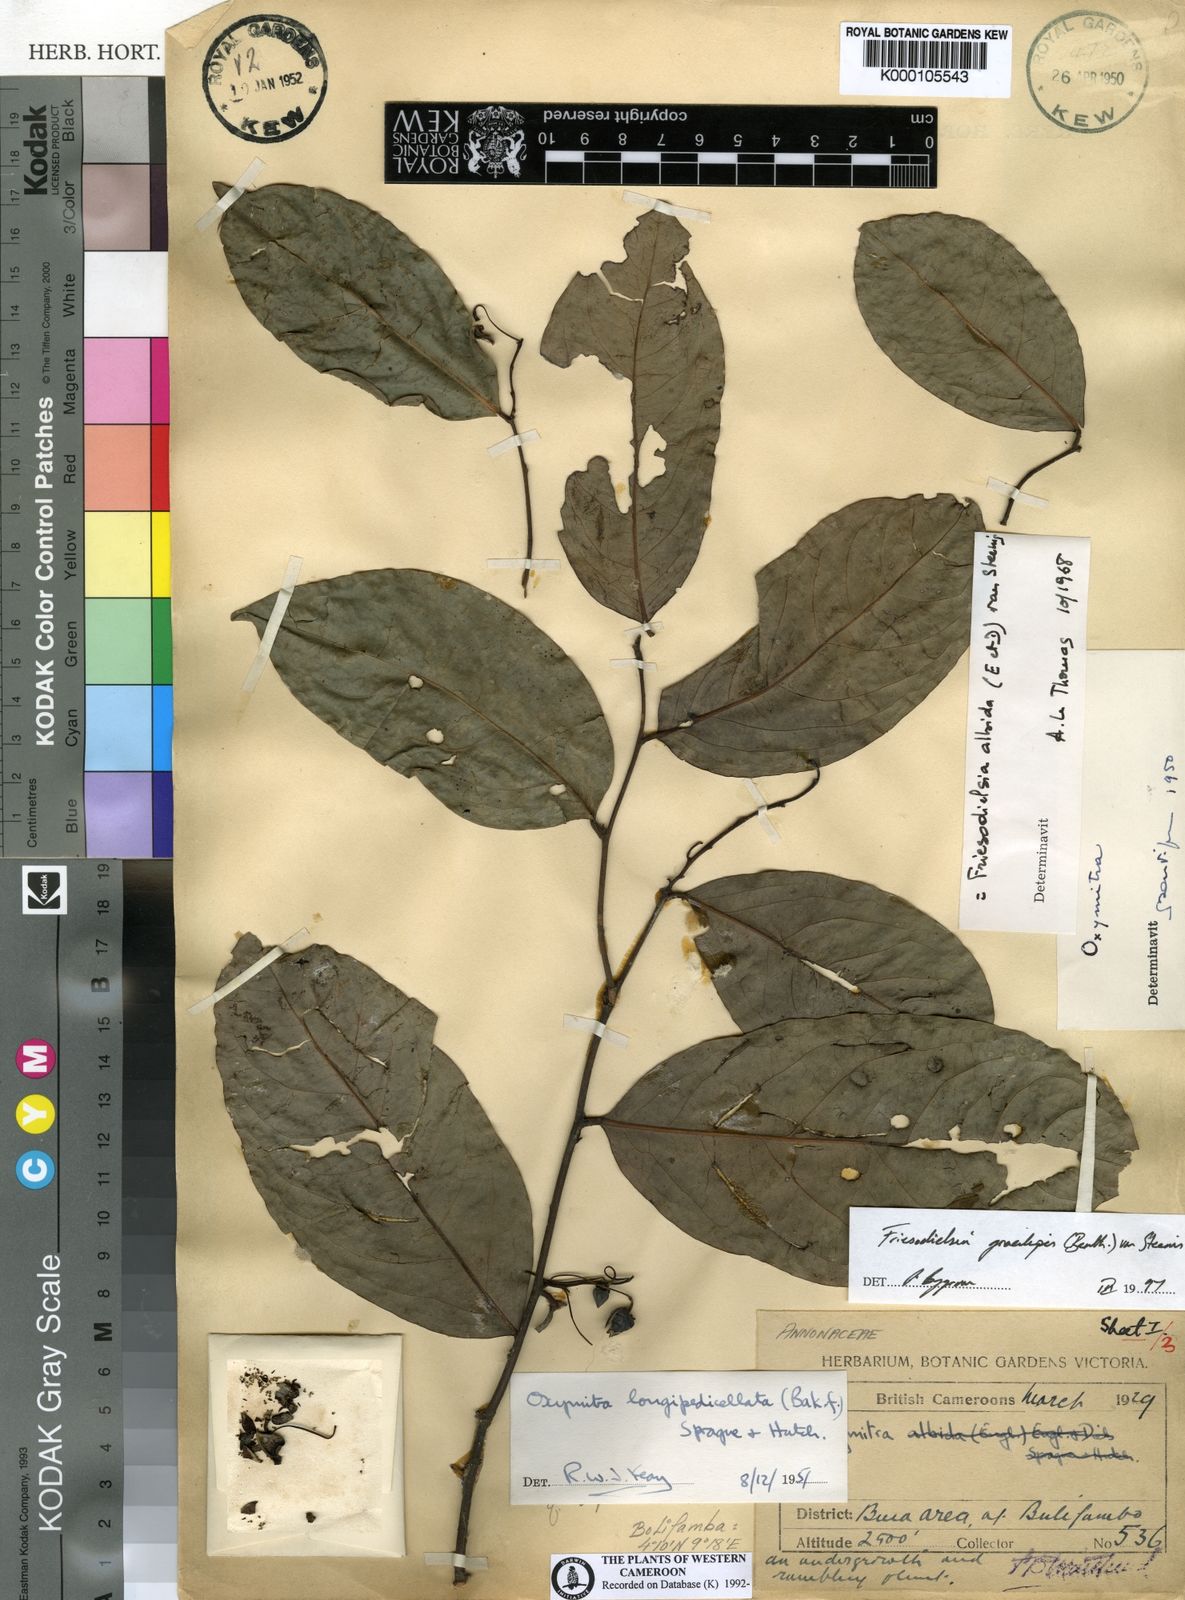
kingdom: Plantae
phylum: Tracheophyta
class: Magnoliopsida
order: Magnoliales
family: Annonaceae
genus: Friesodielsia
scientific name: Friesodielsia gracilipes
